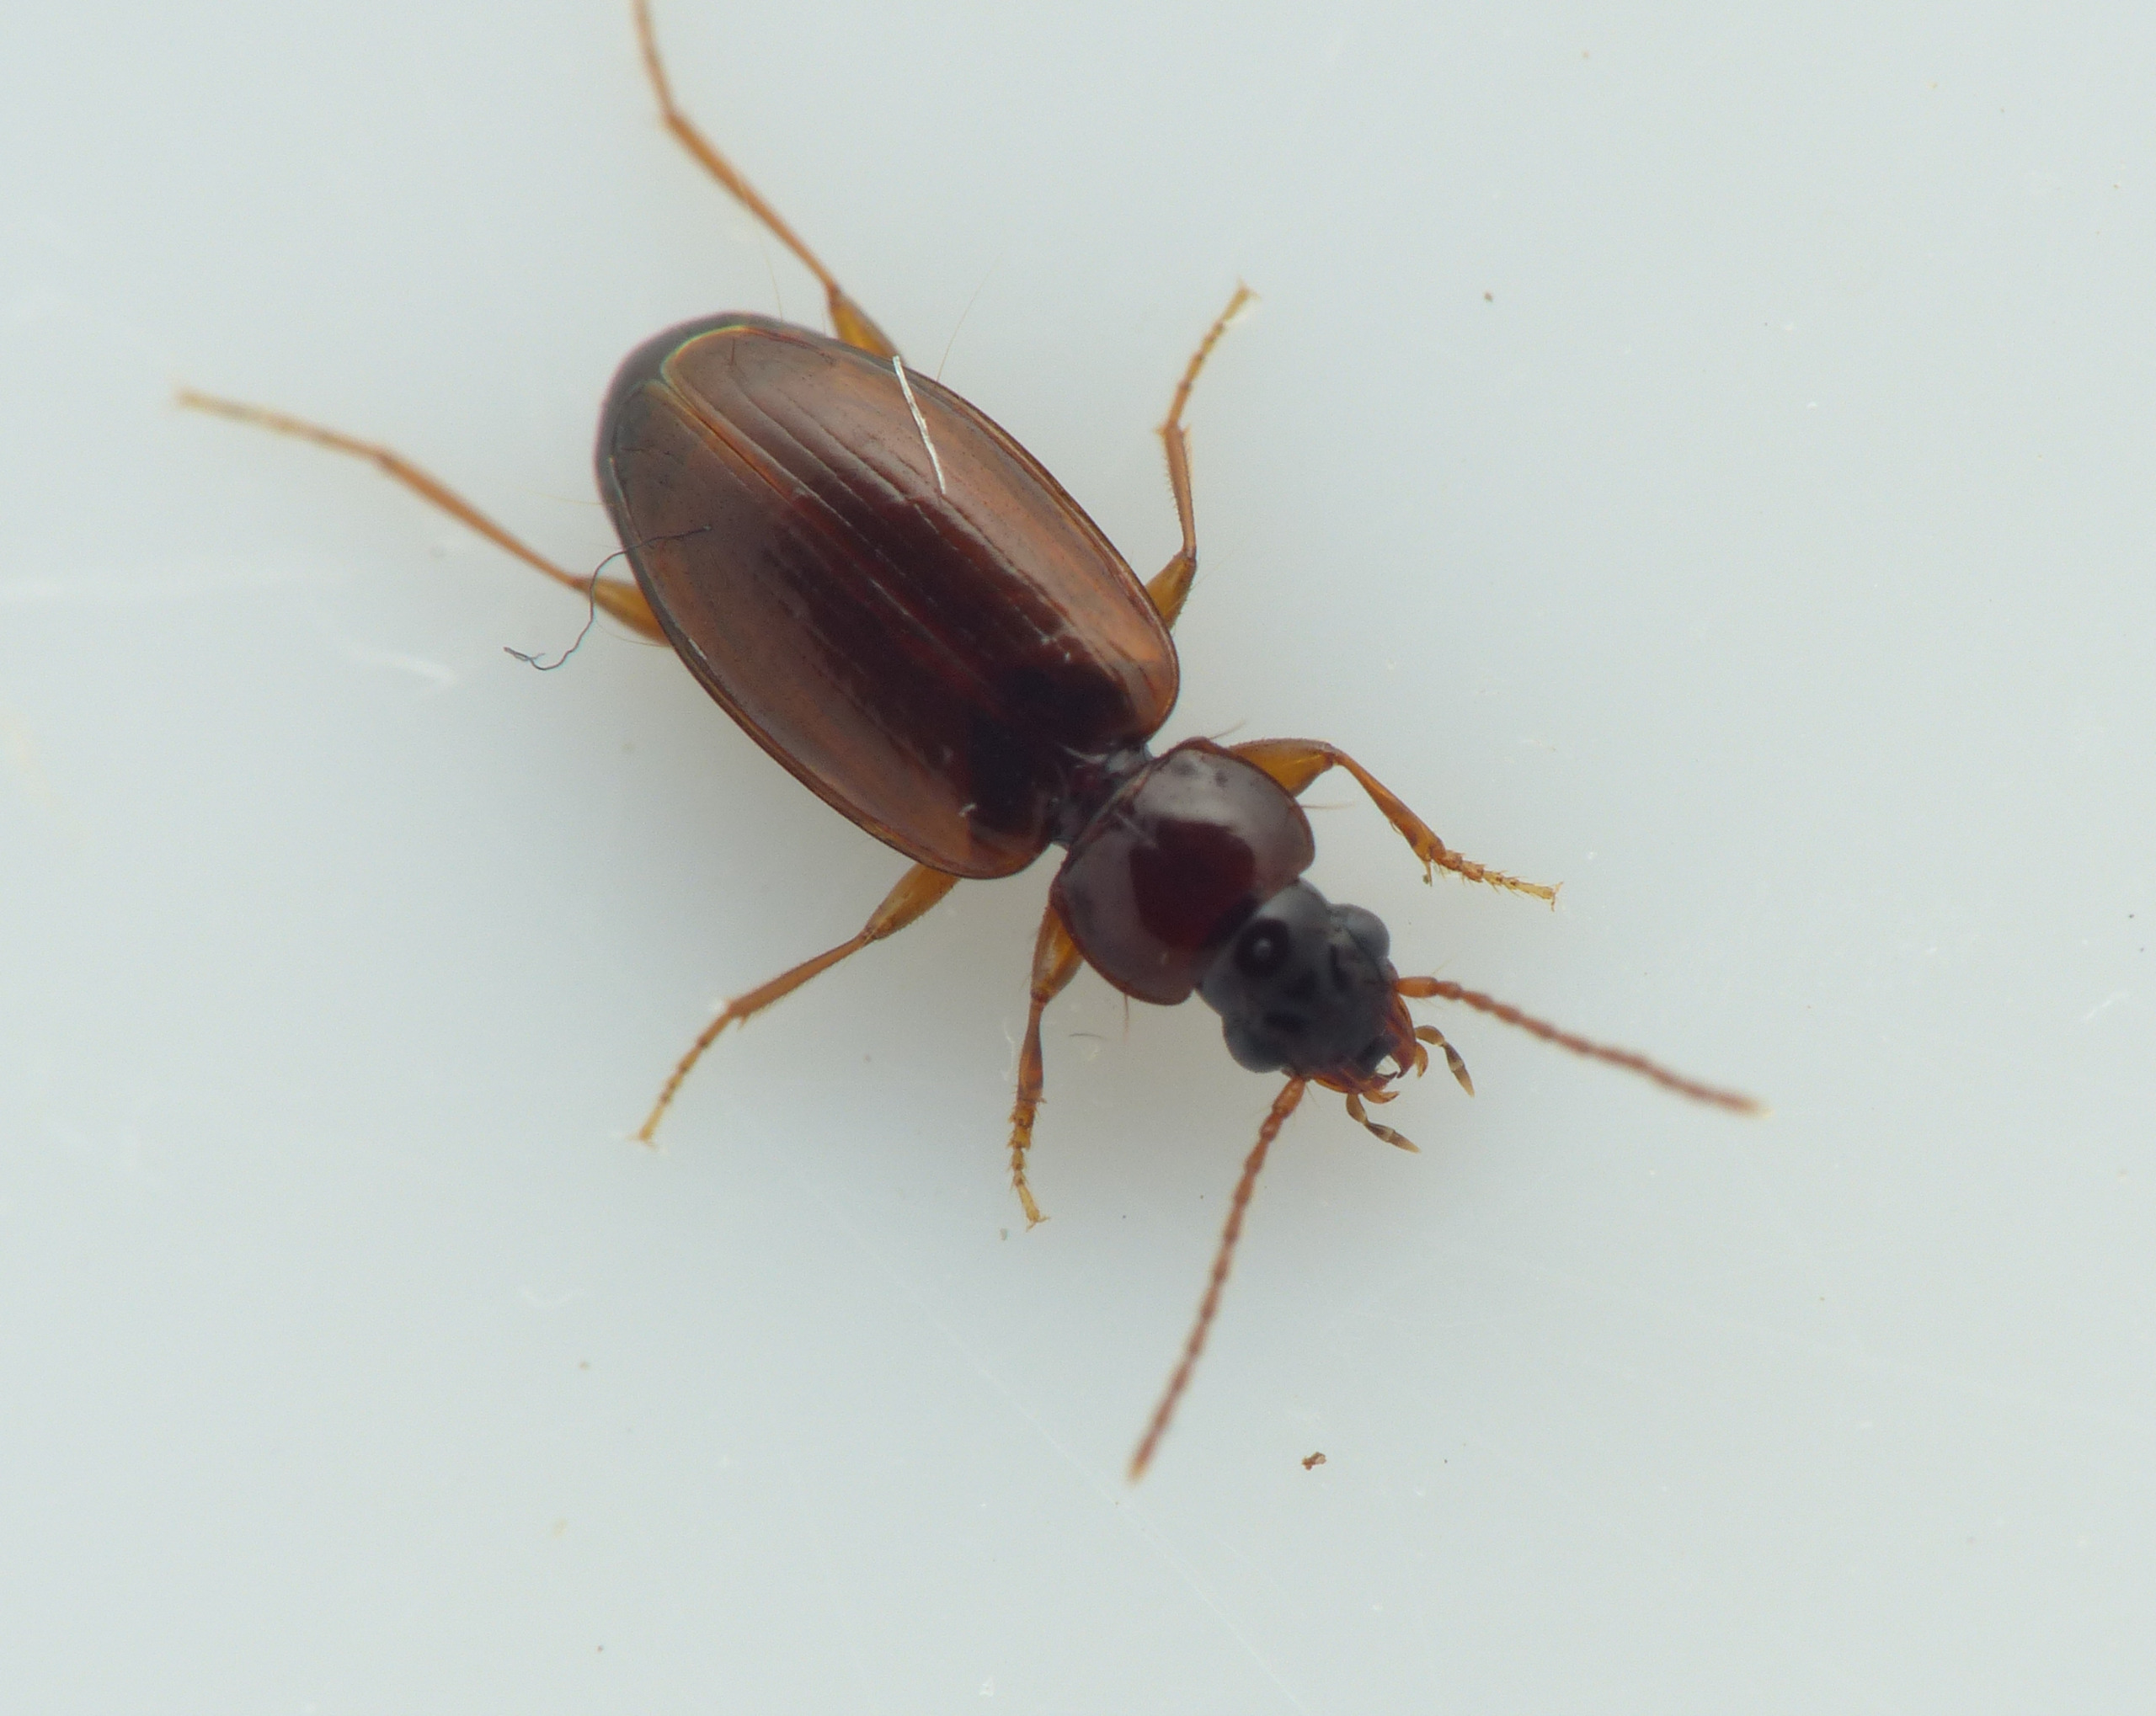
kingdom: Animalia
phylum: Arthropoda
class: Insecta
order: Coleoptera
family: Carabidae
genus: Trechus
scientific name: Trechus quadristriatus
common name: Markgrotteløber
